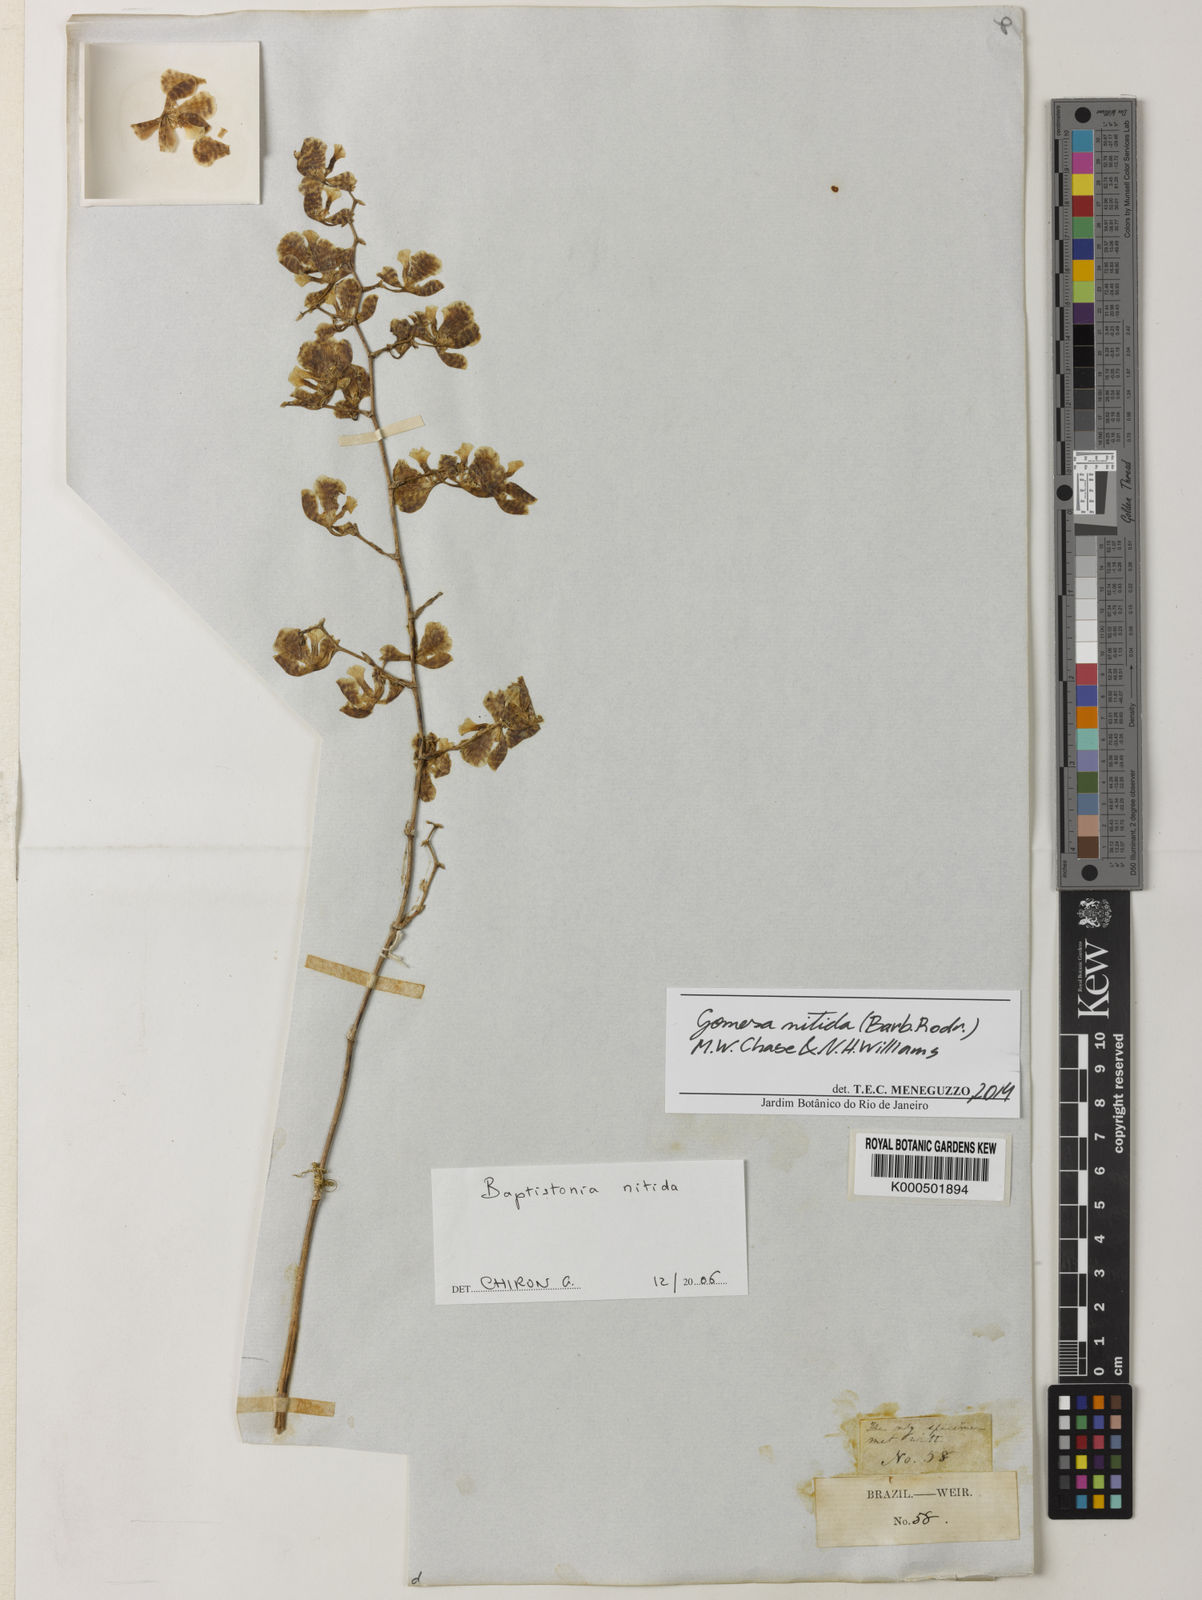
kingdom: Plantae
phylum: Tracheophyta
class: Liliopsida
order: Asparagales
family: Orchidaceae
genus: Gomesa
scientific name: Gomesa nitida
